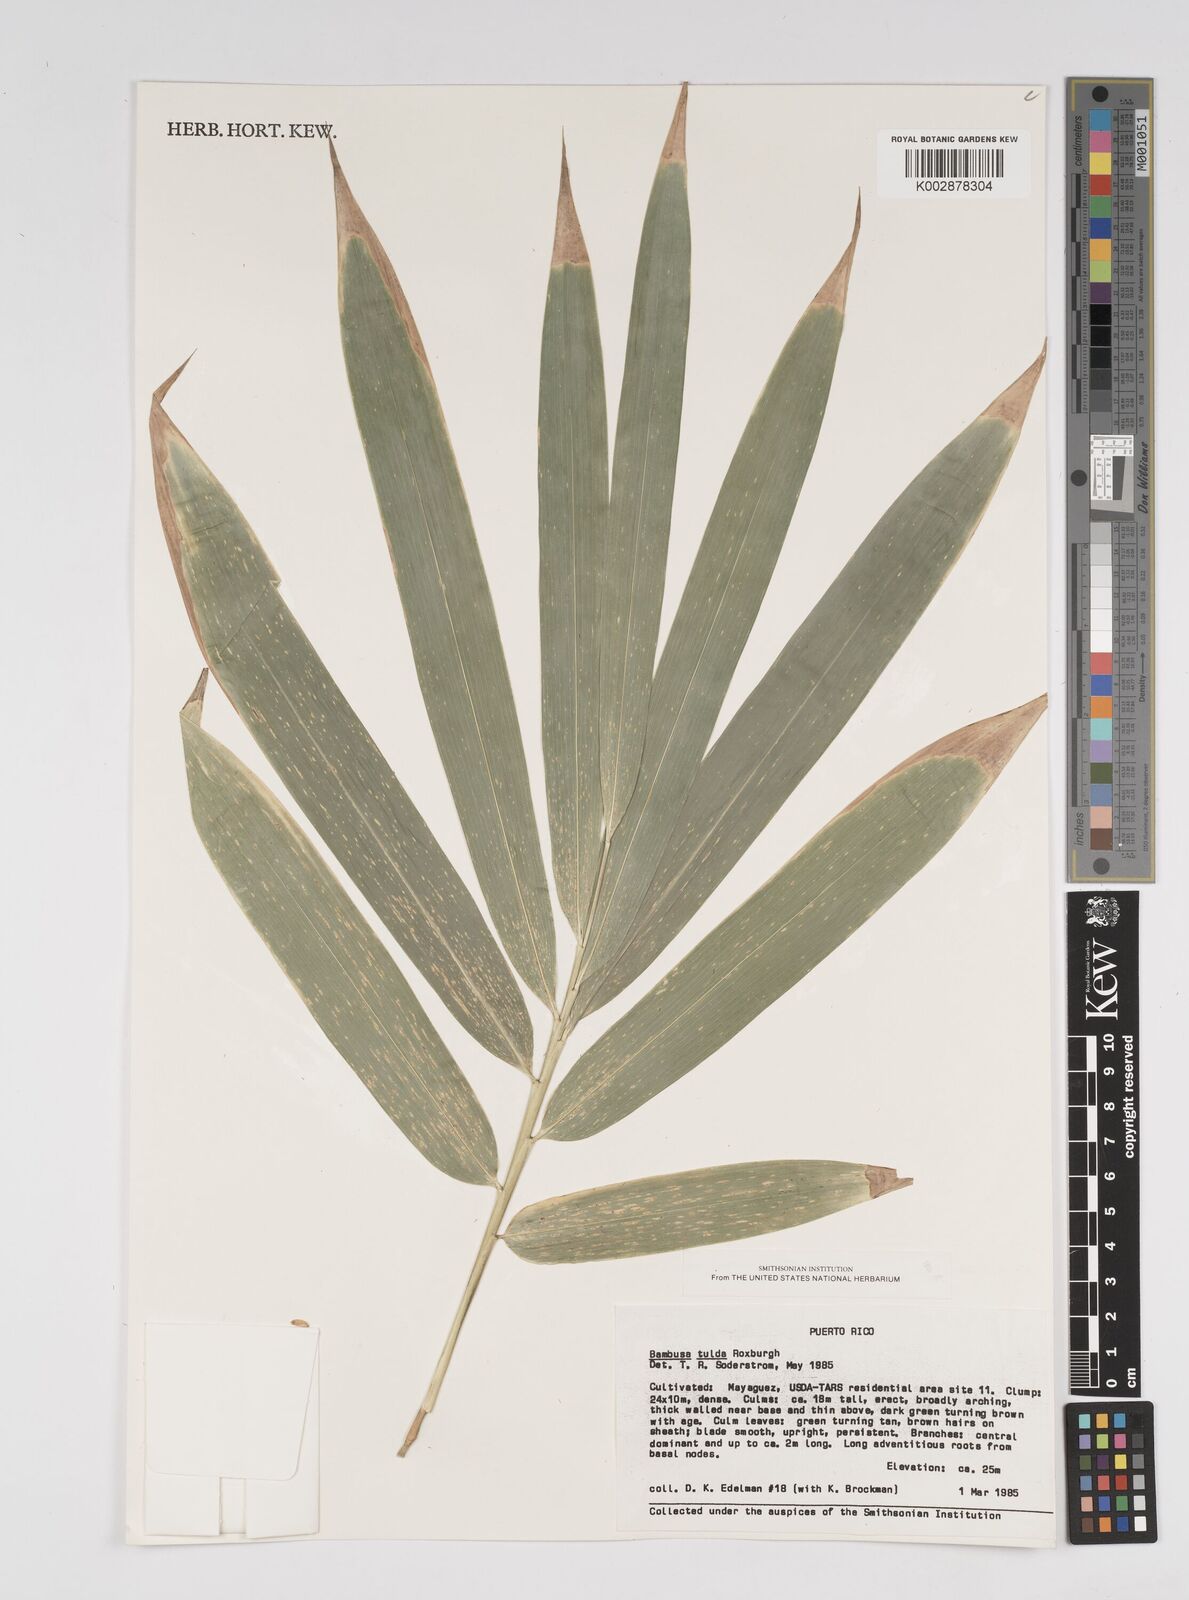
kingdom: Plantae
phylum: Tracheophyta
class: Liliopsida
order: Poales
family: Poaceae
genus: Bambusa
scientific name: Bambusa vulgaris
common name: Common bamboo
